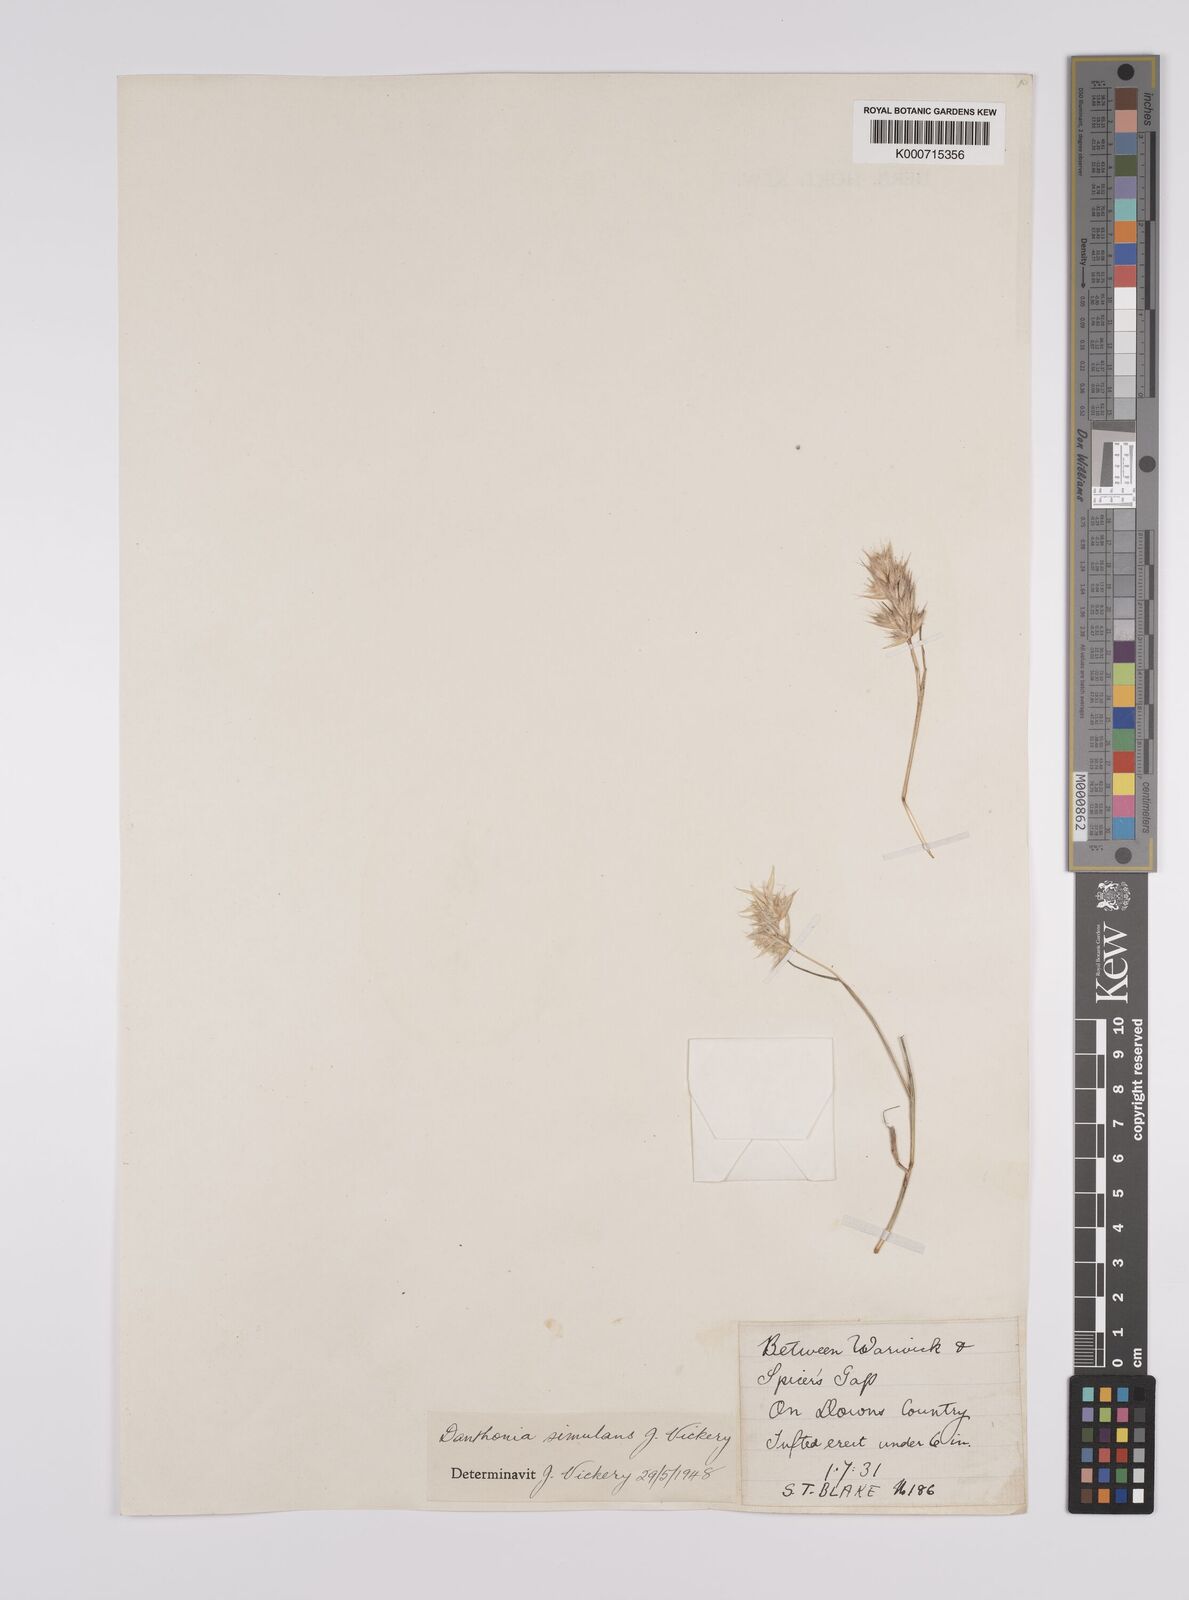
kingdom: Plantae
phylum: Tracheophyta
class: Liliopsida
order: Poales
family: Poaceae
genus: Rytidosperma
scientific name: Rytidosperma bipartitum
